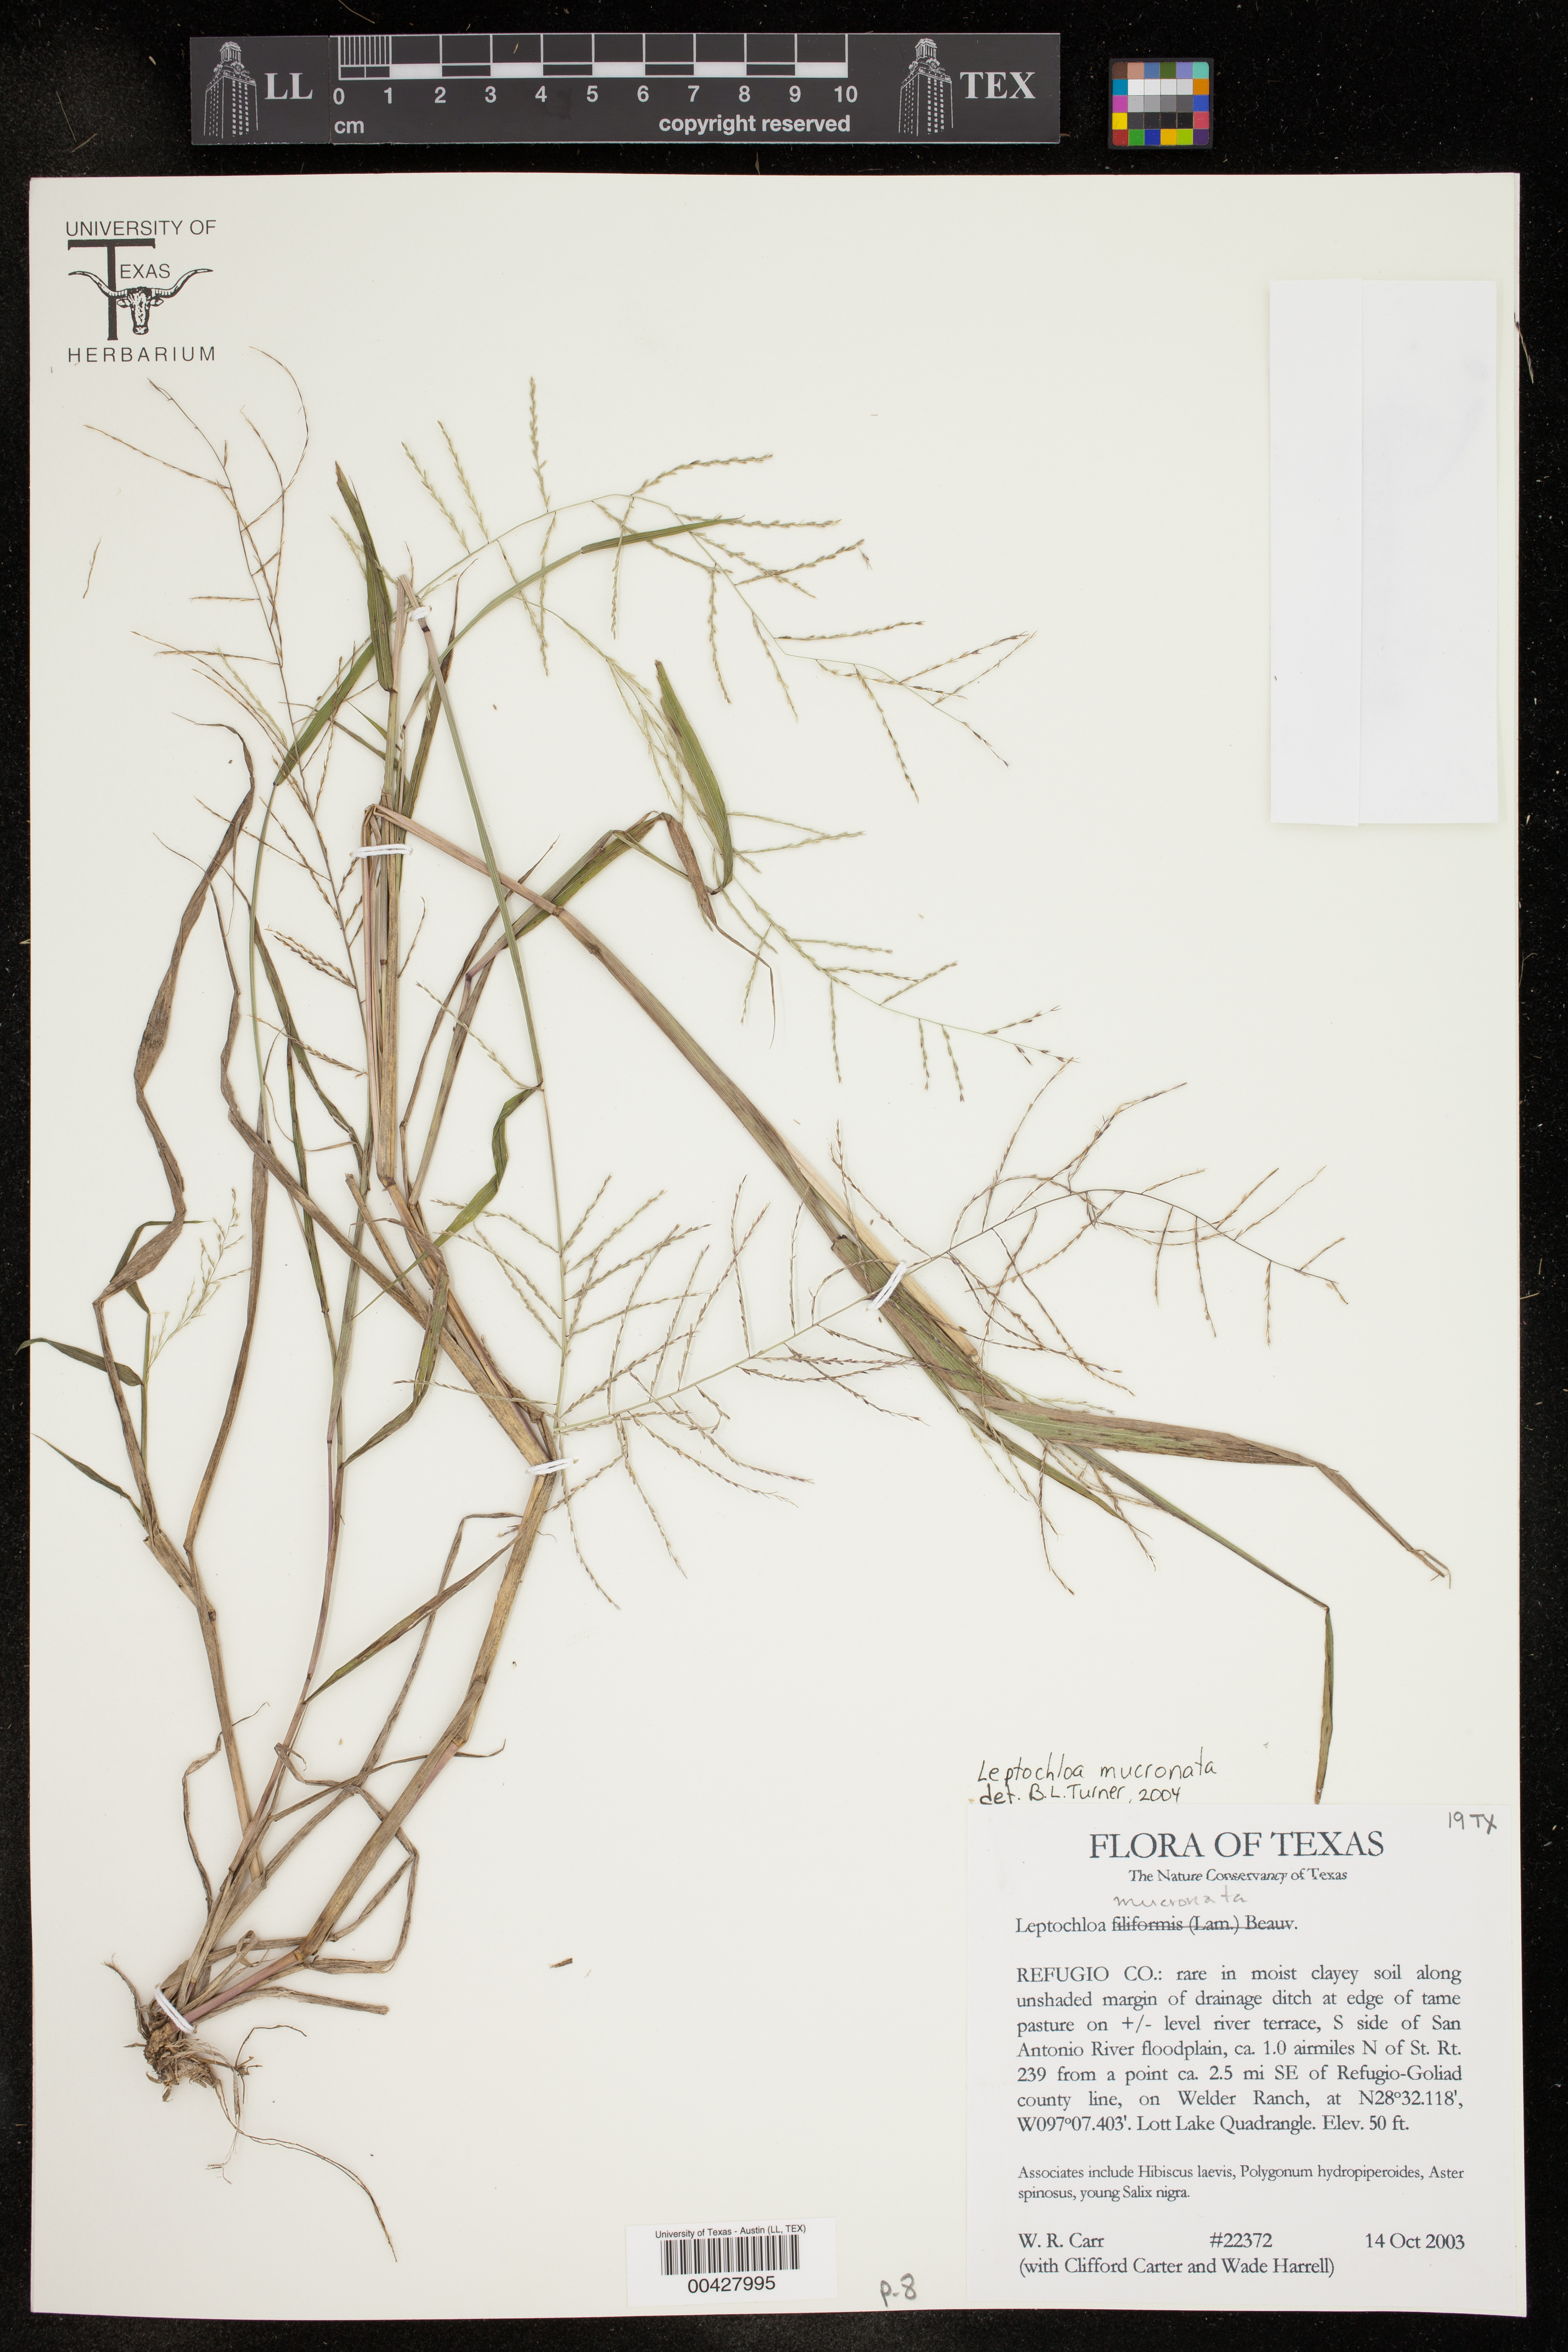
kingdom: Plantae
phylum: Tracheophyta
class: Liliopsida
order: Poales
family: Poaceae
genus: Leptochloa
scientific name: Leptochloa mucronata
